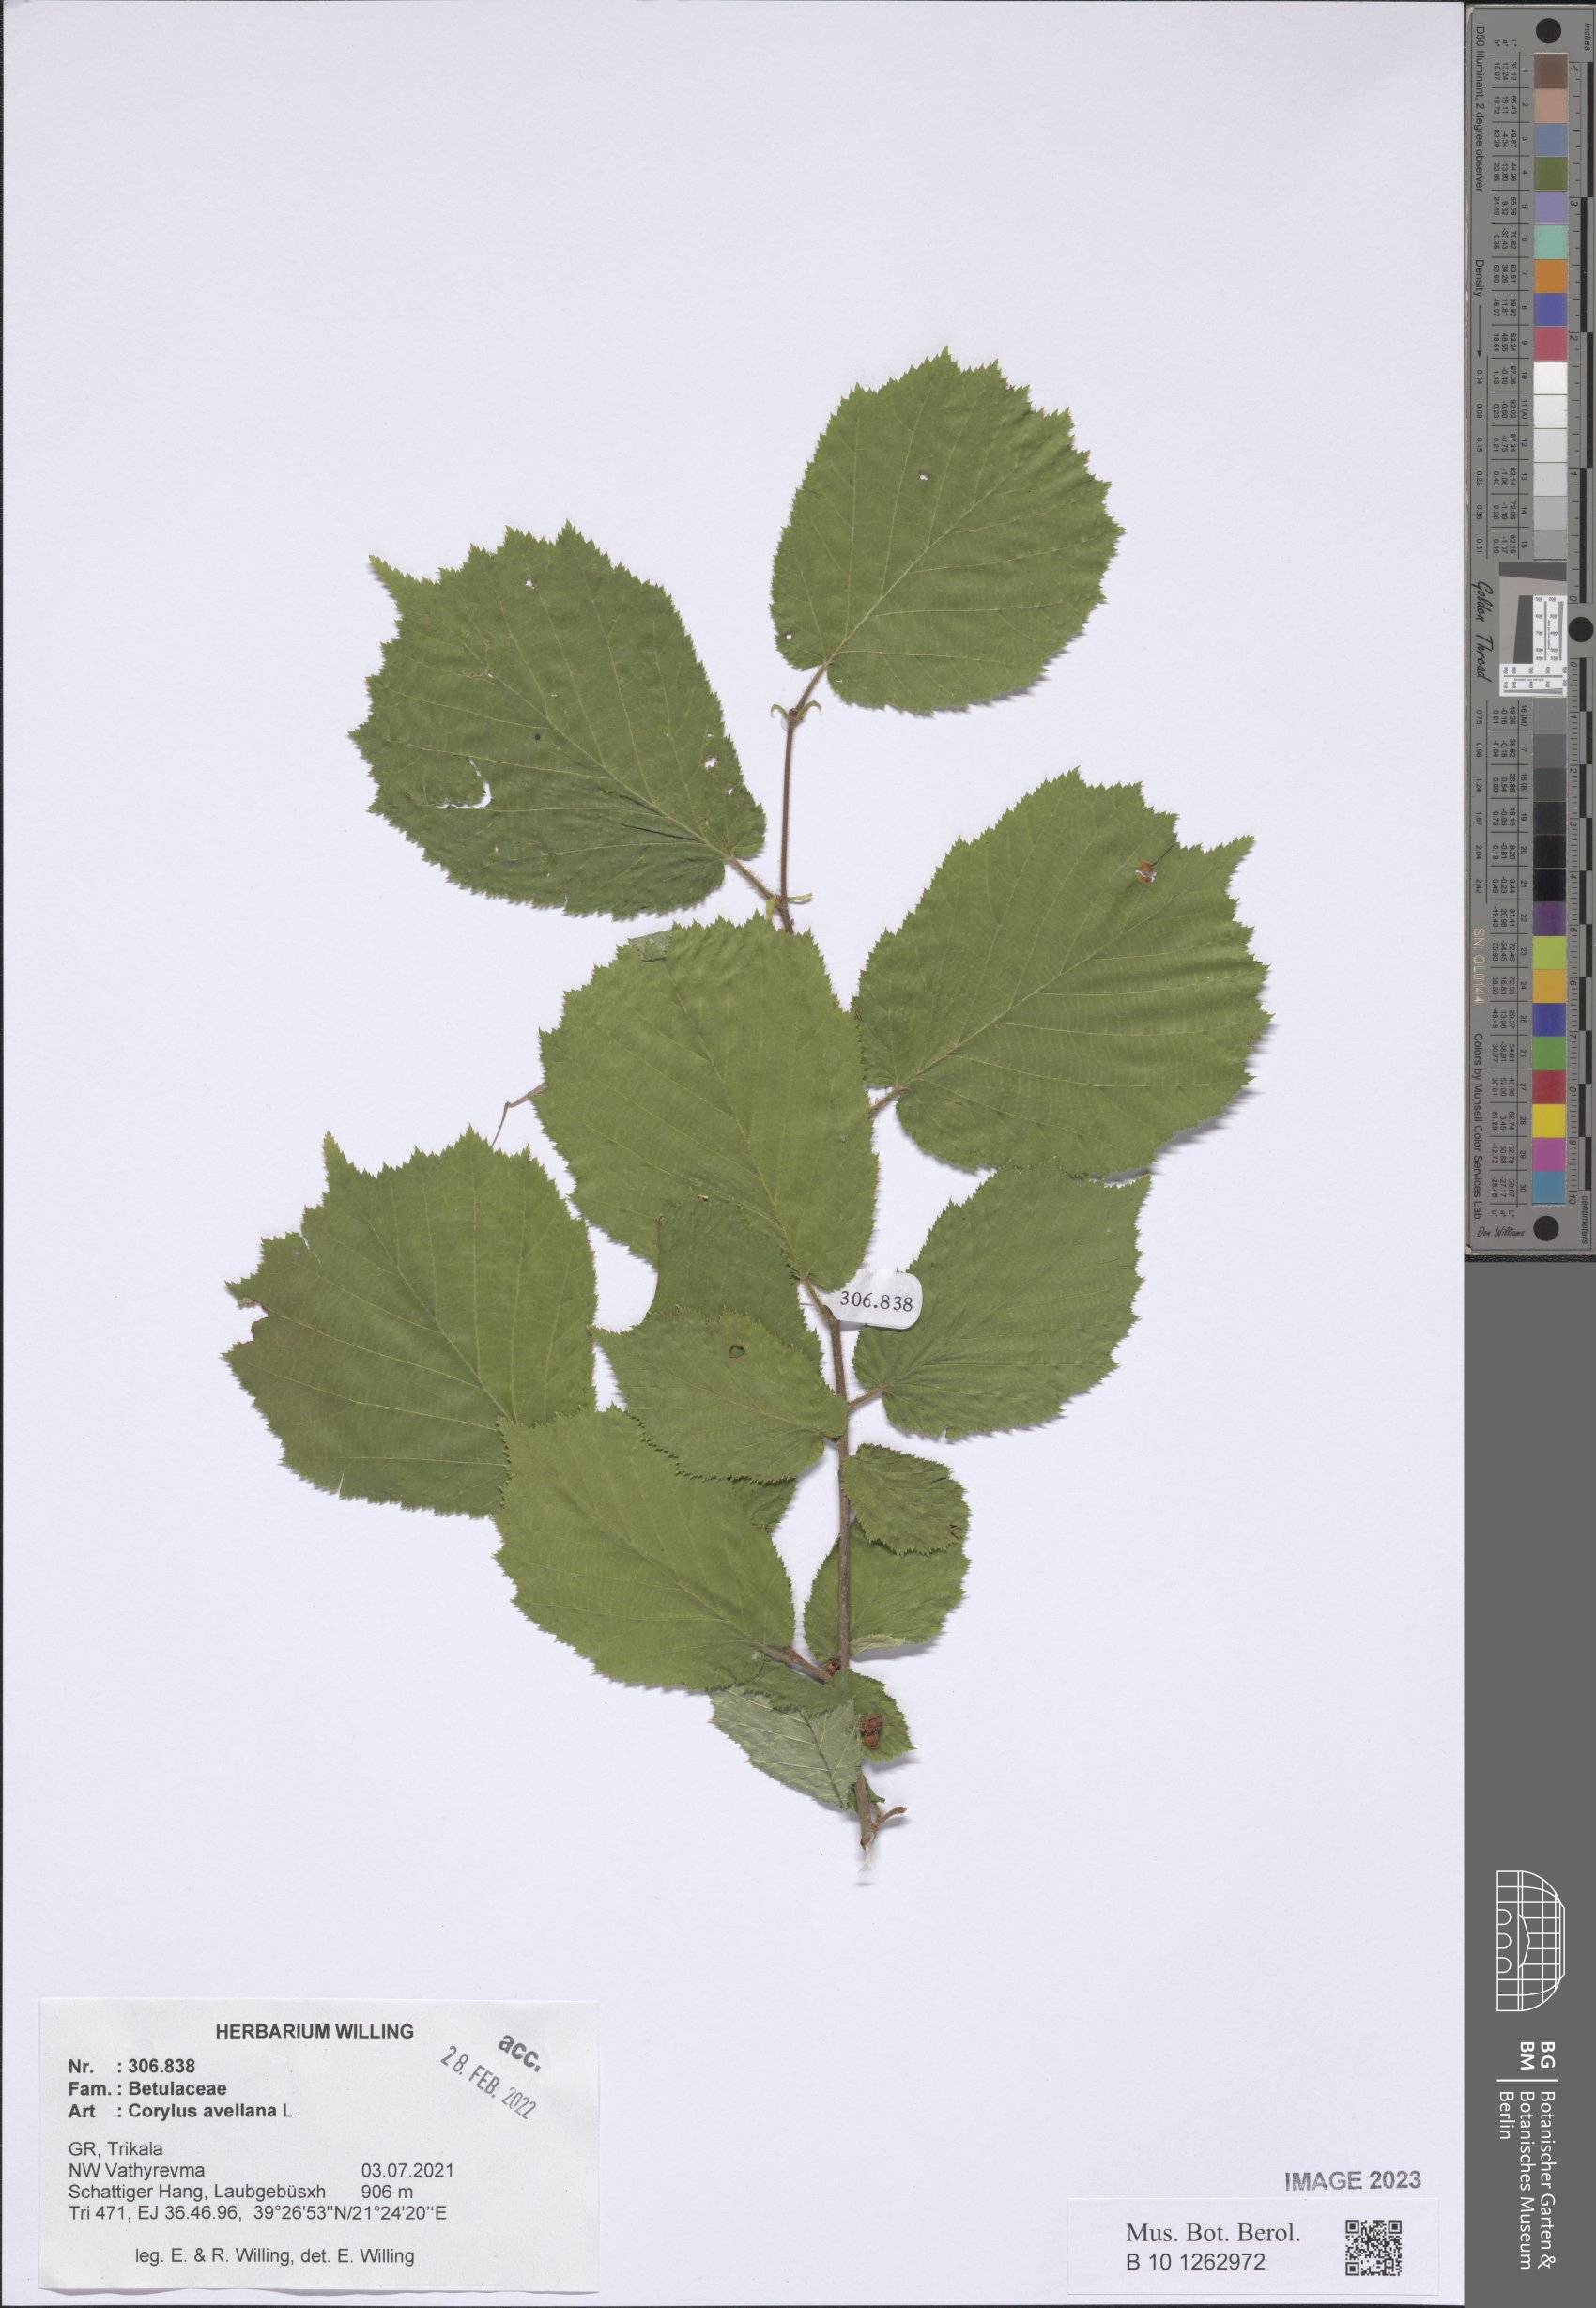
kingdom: Plantae
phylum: Tracheophyta
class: Magnoliopsida
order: Fagales
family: Betulaceae
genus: Corylus
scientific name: Corylus avellana
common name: European hazel
